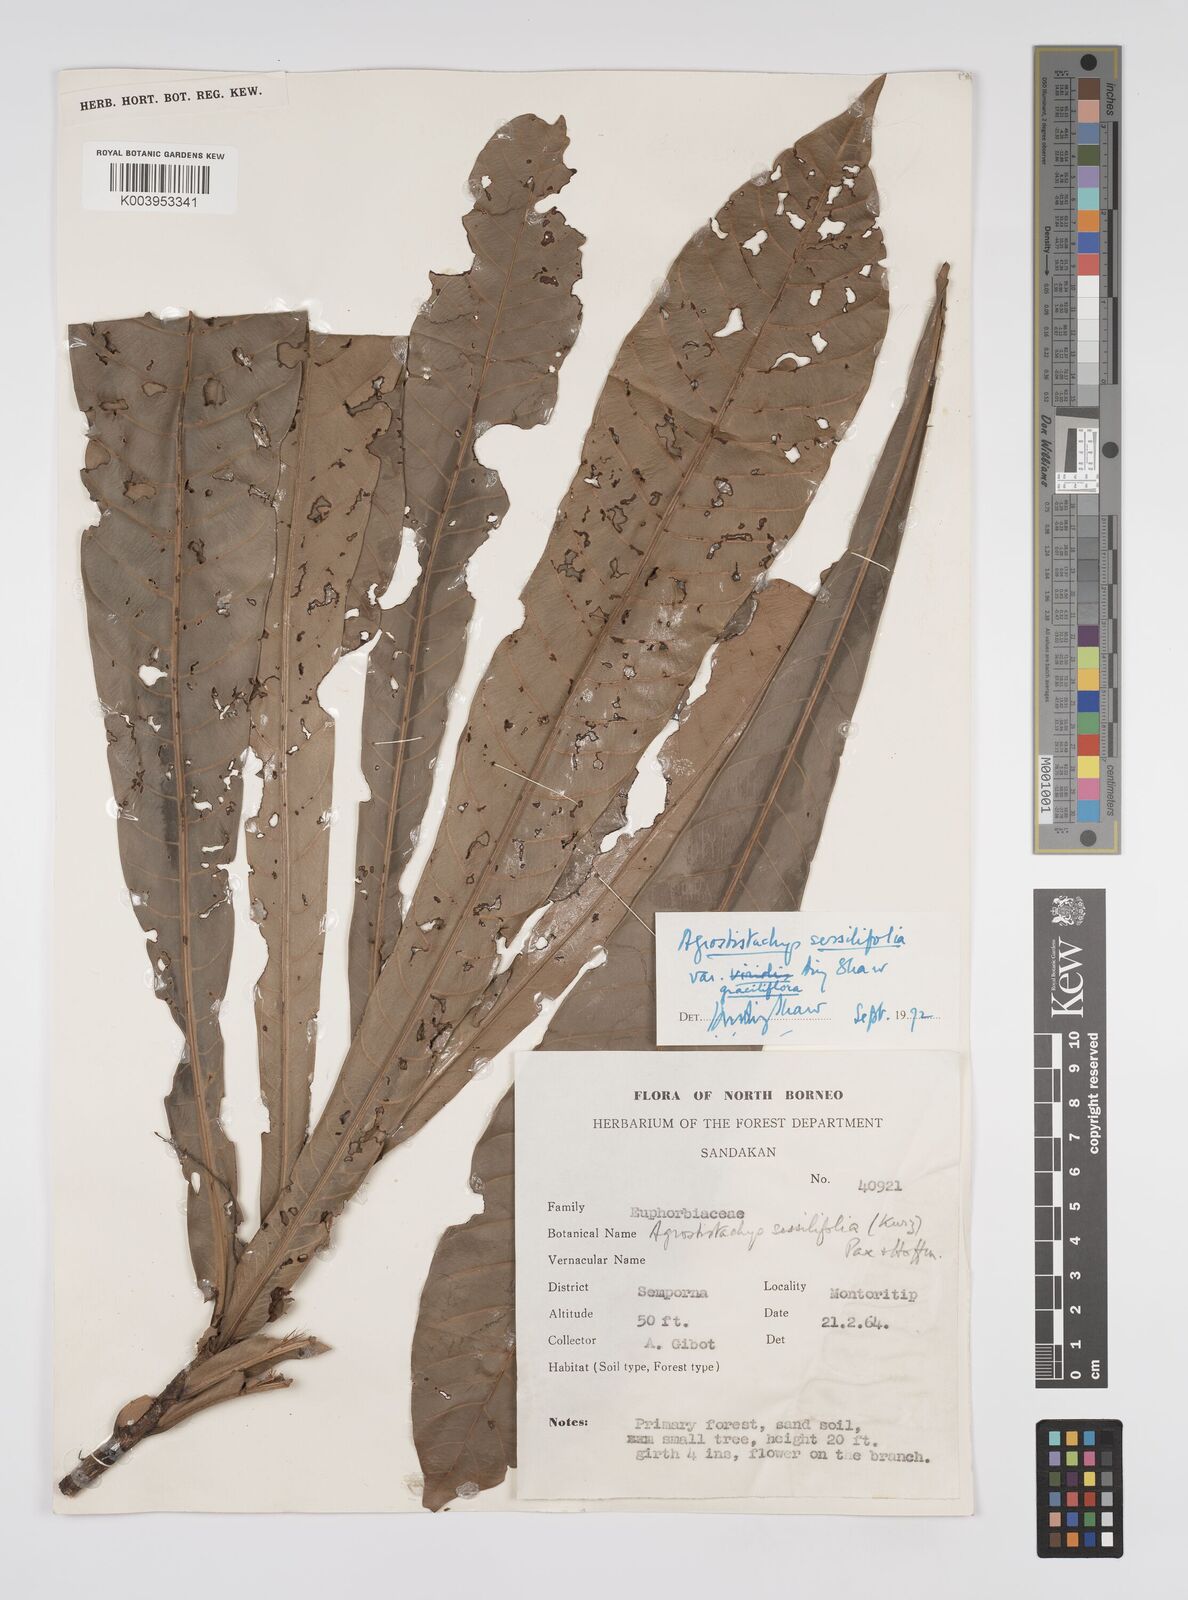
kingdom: Plantae
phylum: Tracheophyta
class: Magnoliopsida
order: Malpighiales
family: Euphorbiaceae
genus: Agrostistachys
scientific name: Agrostistachys sessilifolia
